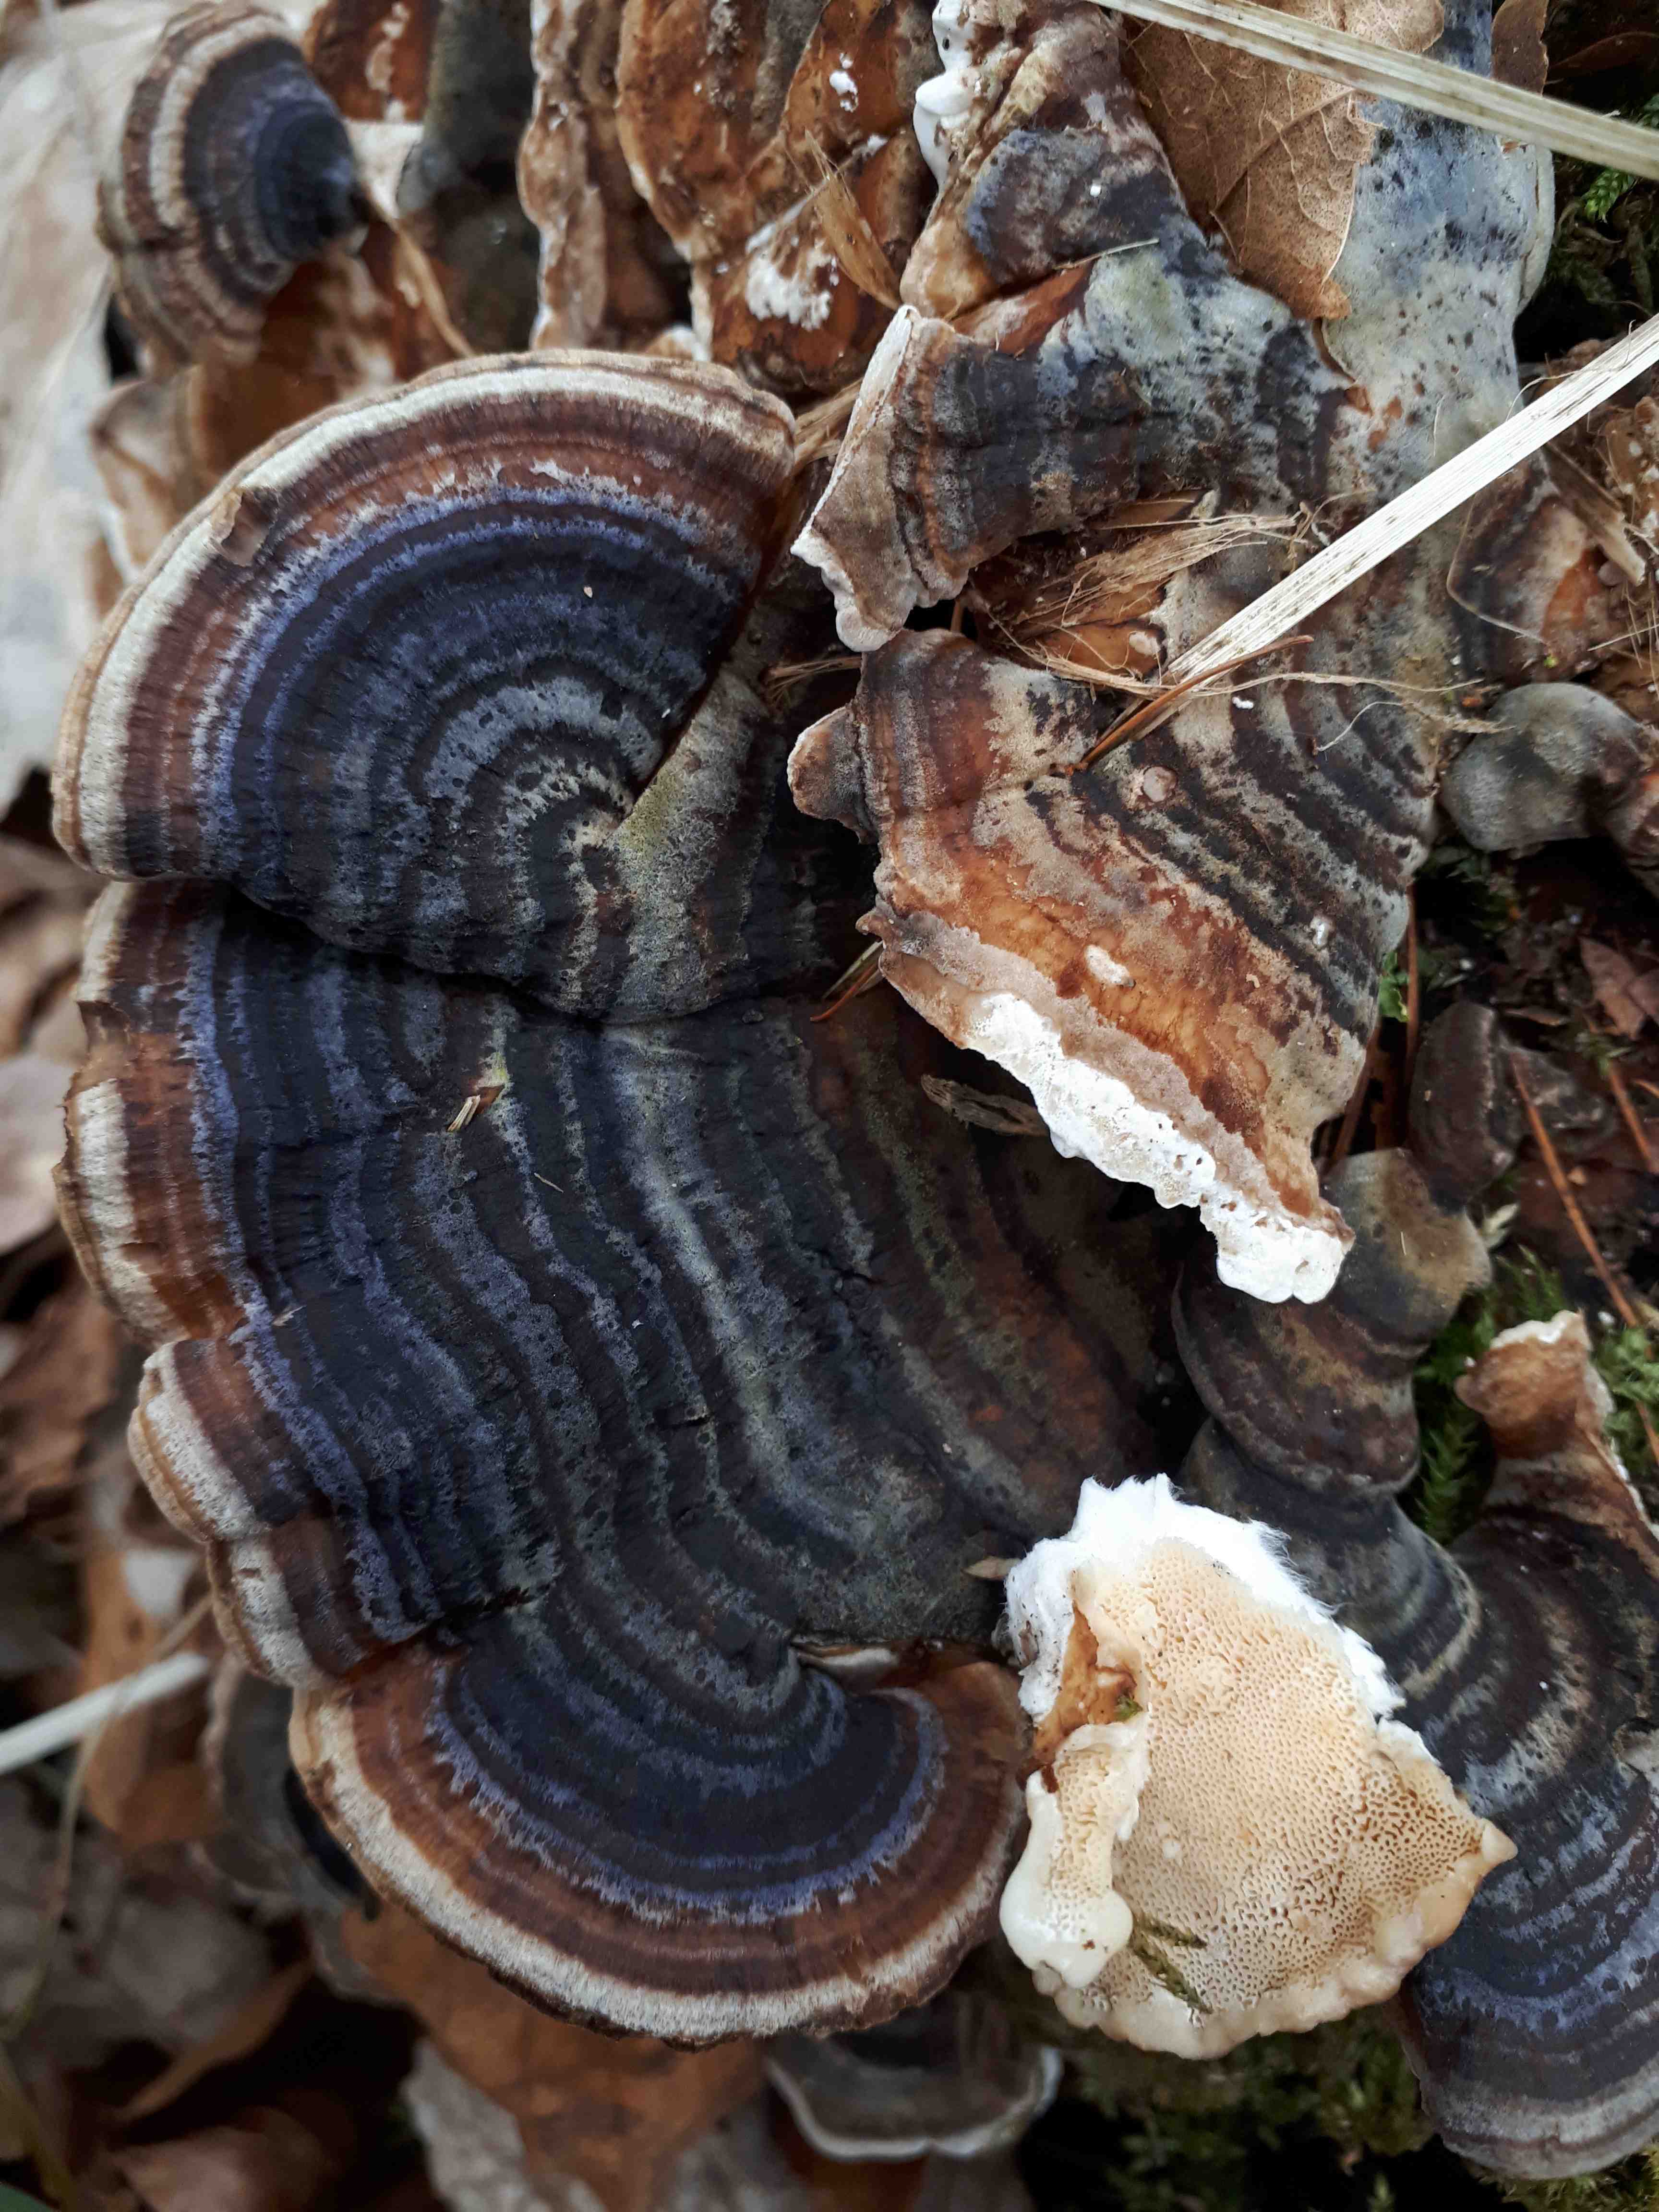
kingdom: Fungi
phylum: Basidiomycota
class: Agaricomycetes
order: Polyporales
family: Polyporaceae
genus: Trametes
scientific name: Trametes versicolor
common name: broget læderporesvamp
